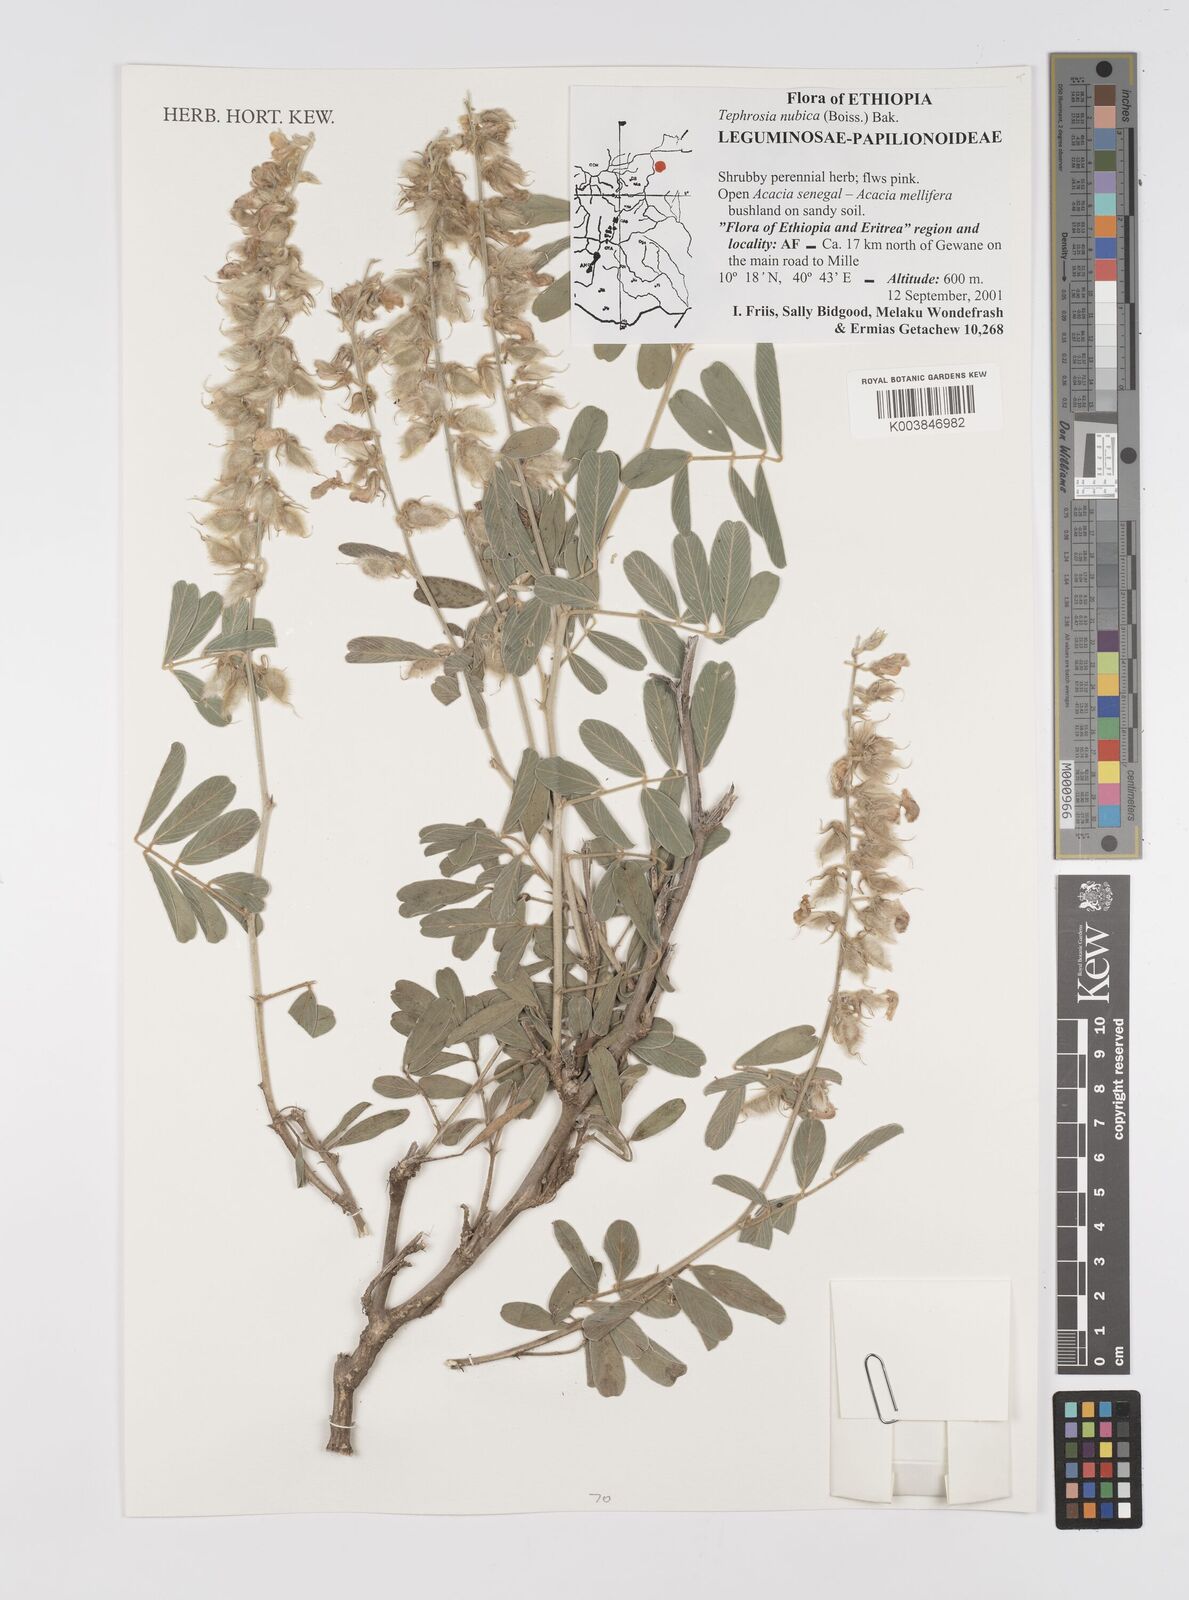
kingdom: Plantae
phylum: Tracheophyta
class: Magnoliopsida
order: Fabales
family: Fabaceae
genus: Tephrosia
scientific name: Tephrosia nubica
